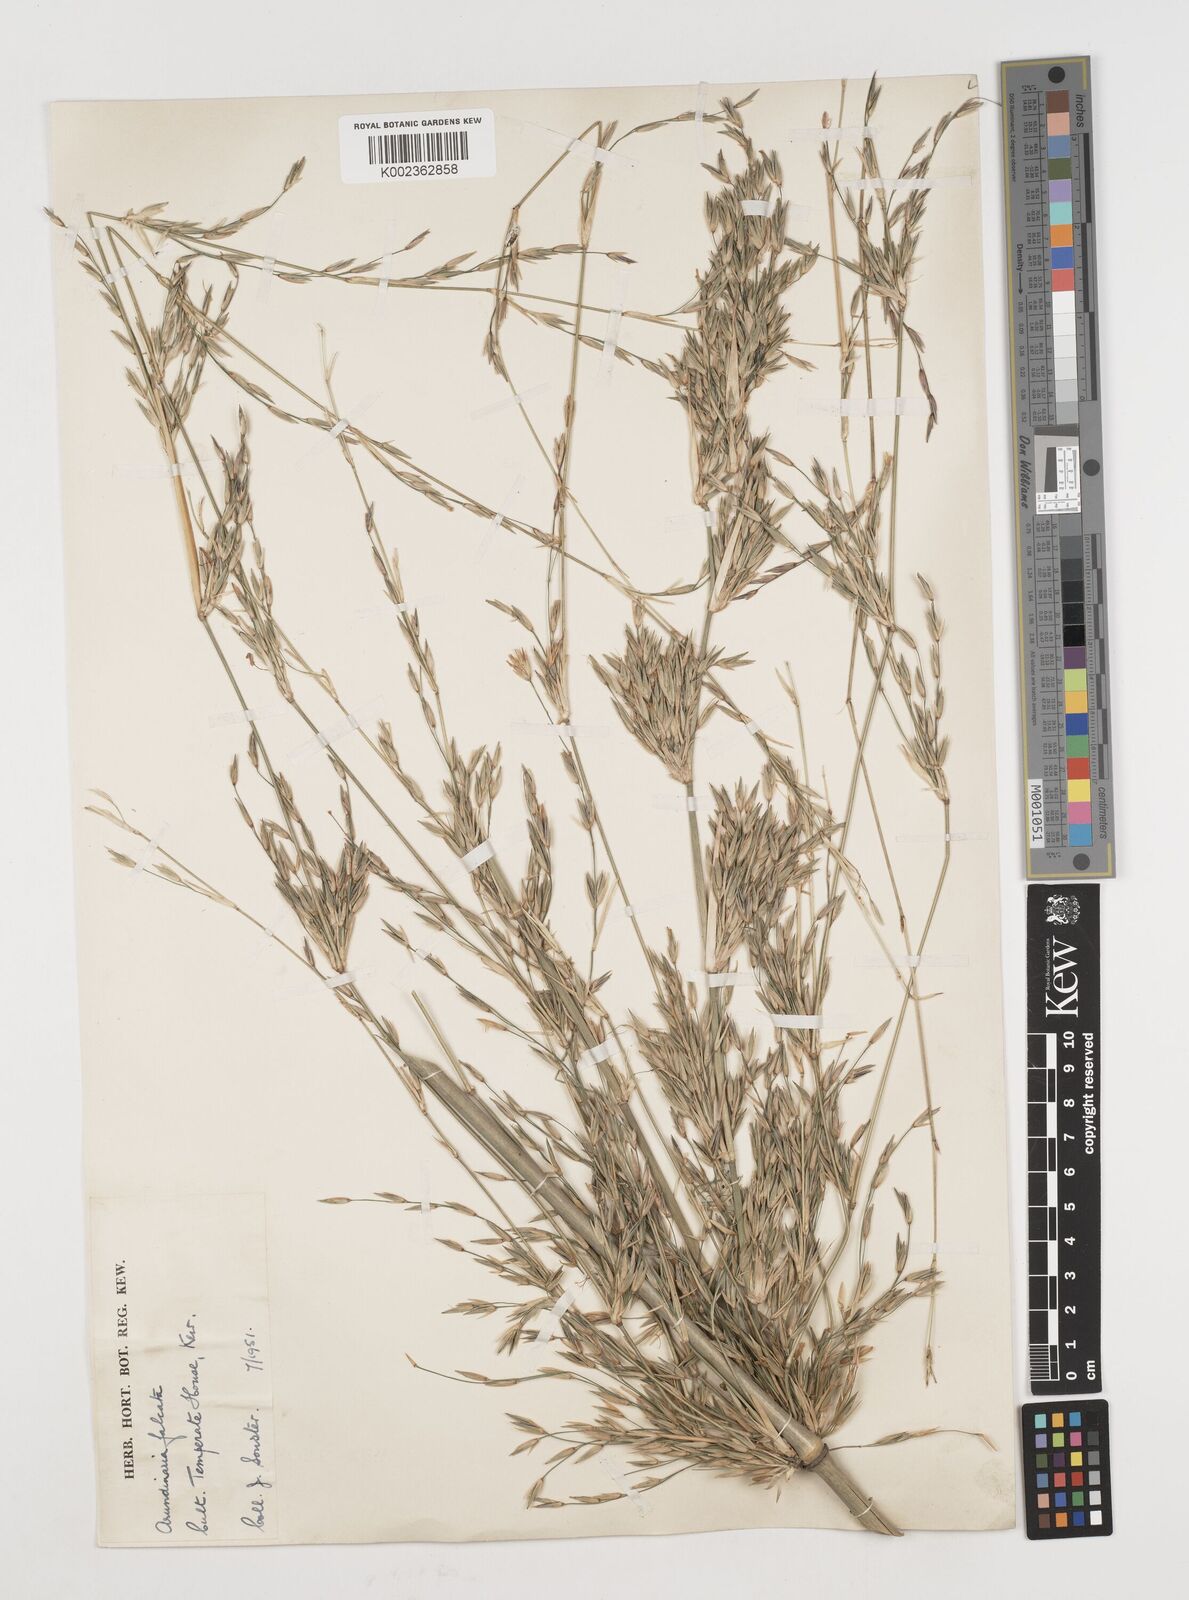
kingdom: Plantae
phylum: Tracheophyta
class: Liliopsida
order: Poales
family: Poaceae
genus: Drepanostachyum
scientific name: Drepanostachyum falcatum
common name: Himalayan bamboo
